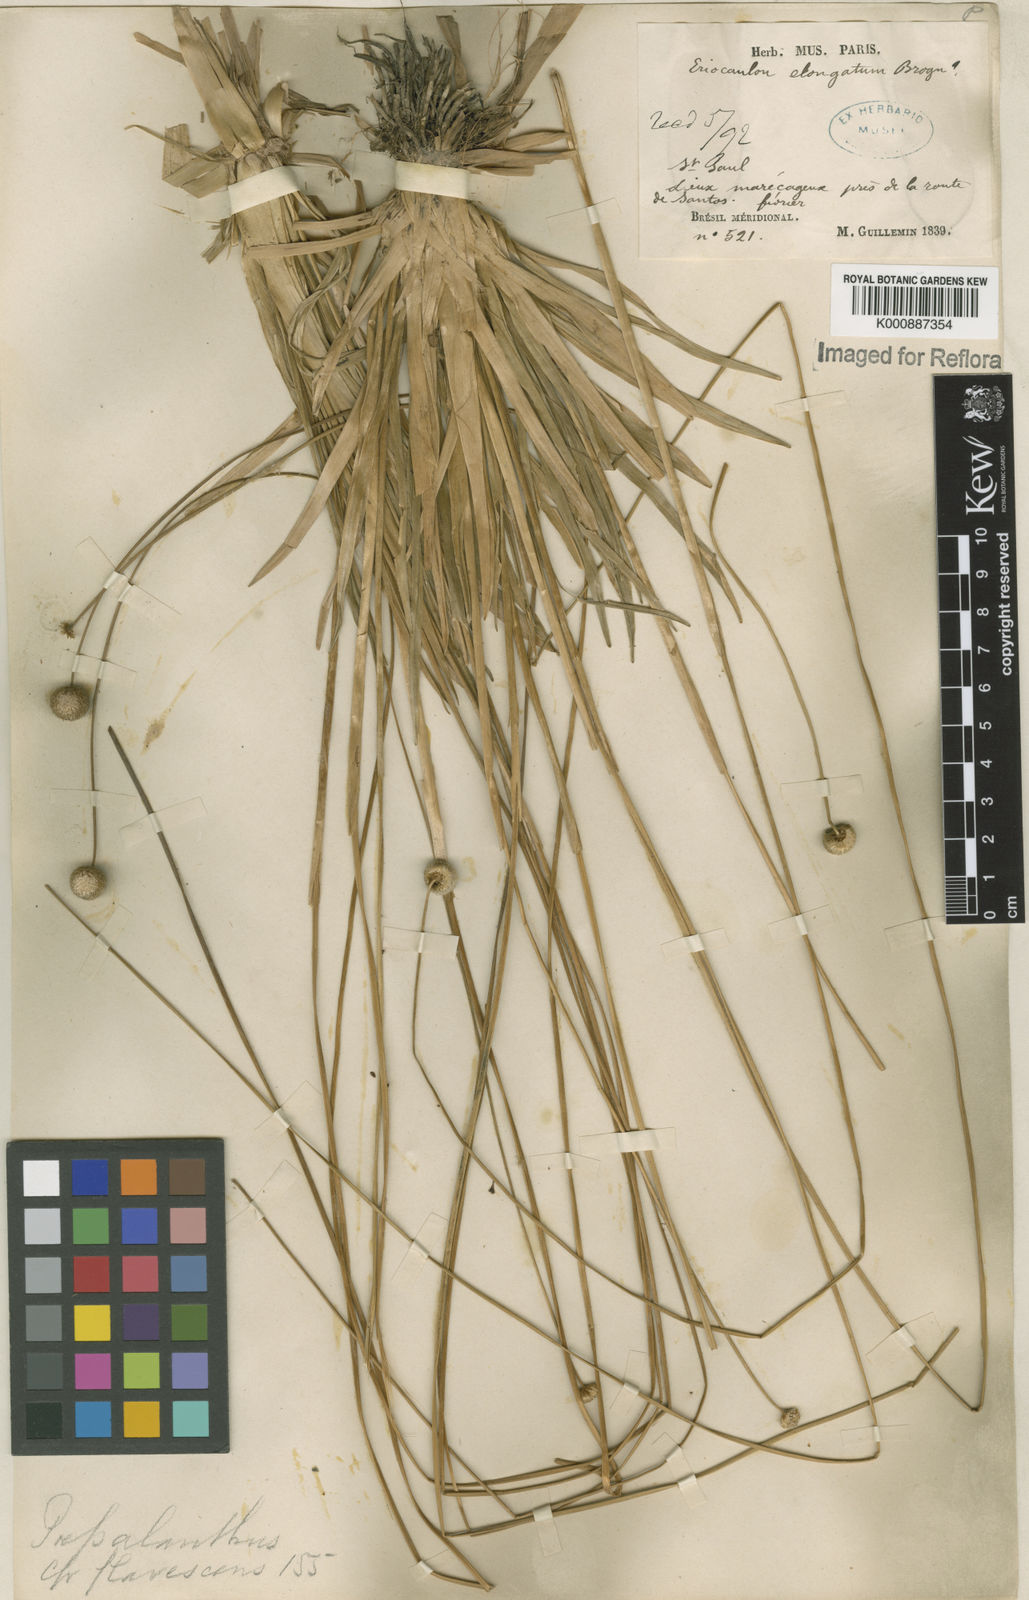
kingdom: Plantae
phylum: Tracheophyta
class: Liliopsida
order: Poales
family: Eriocaulaceae
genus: Leiothrix
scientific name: Leiothrix flavescens
